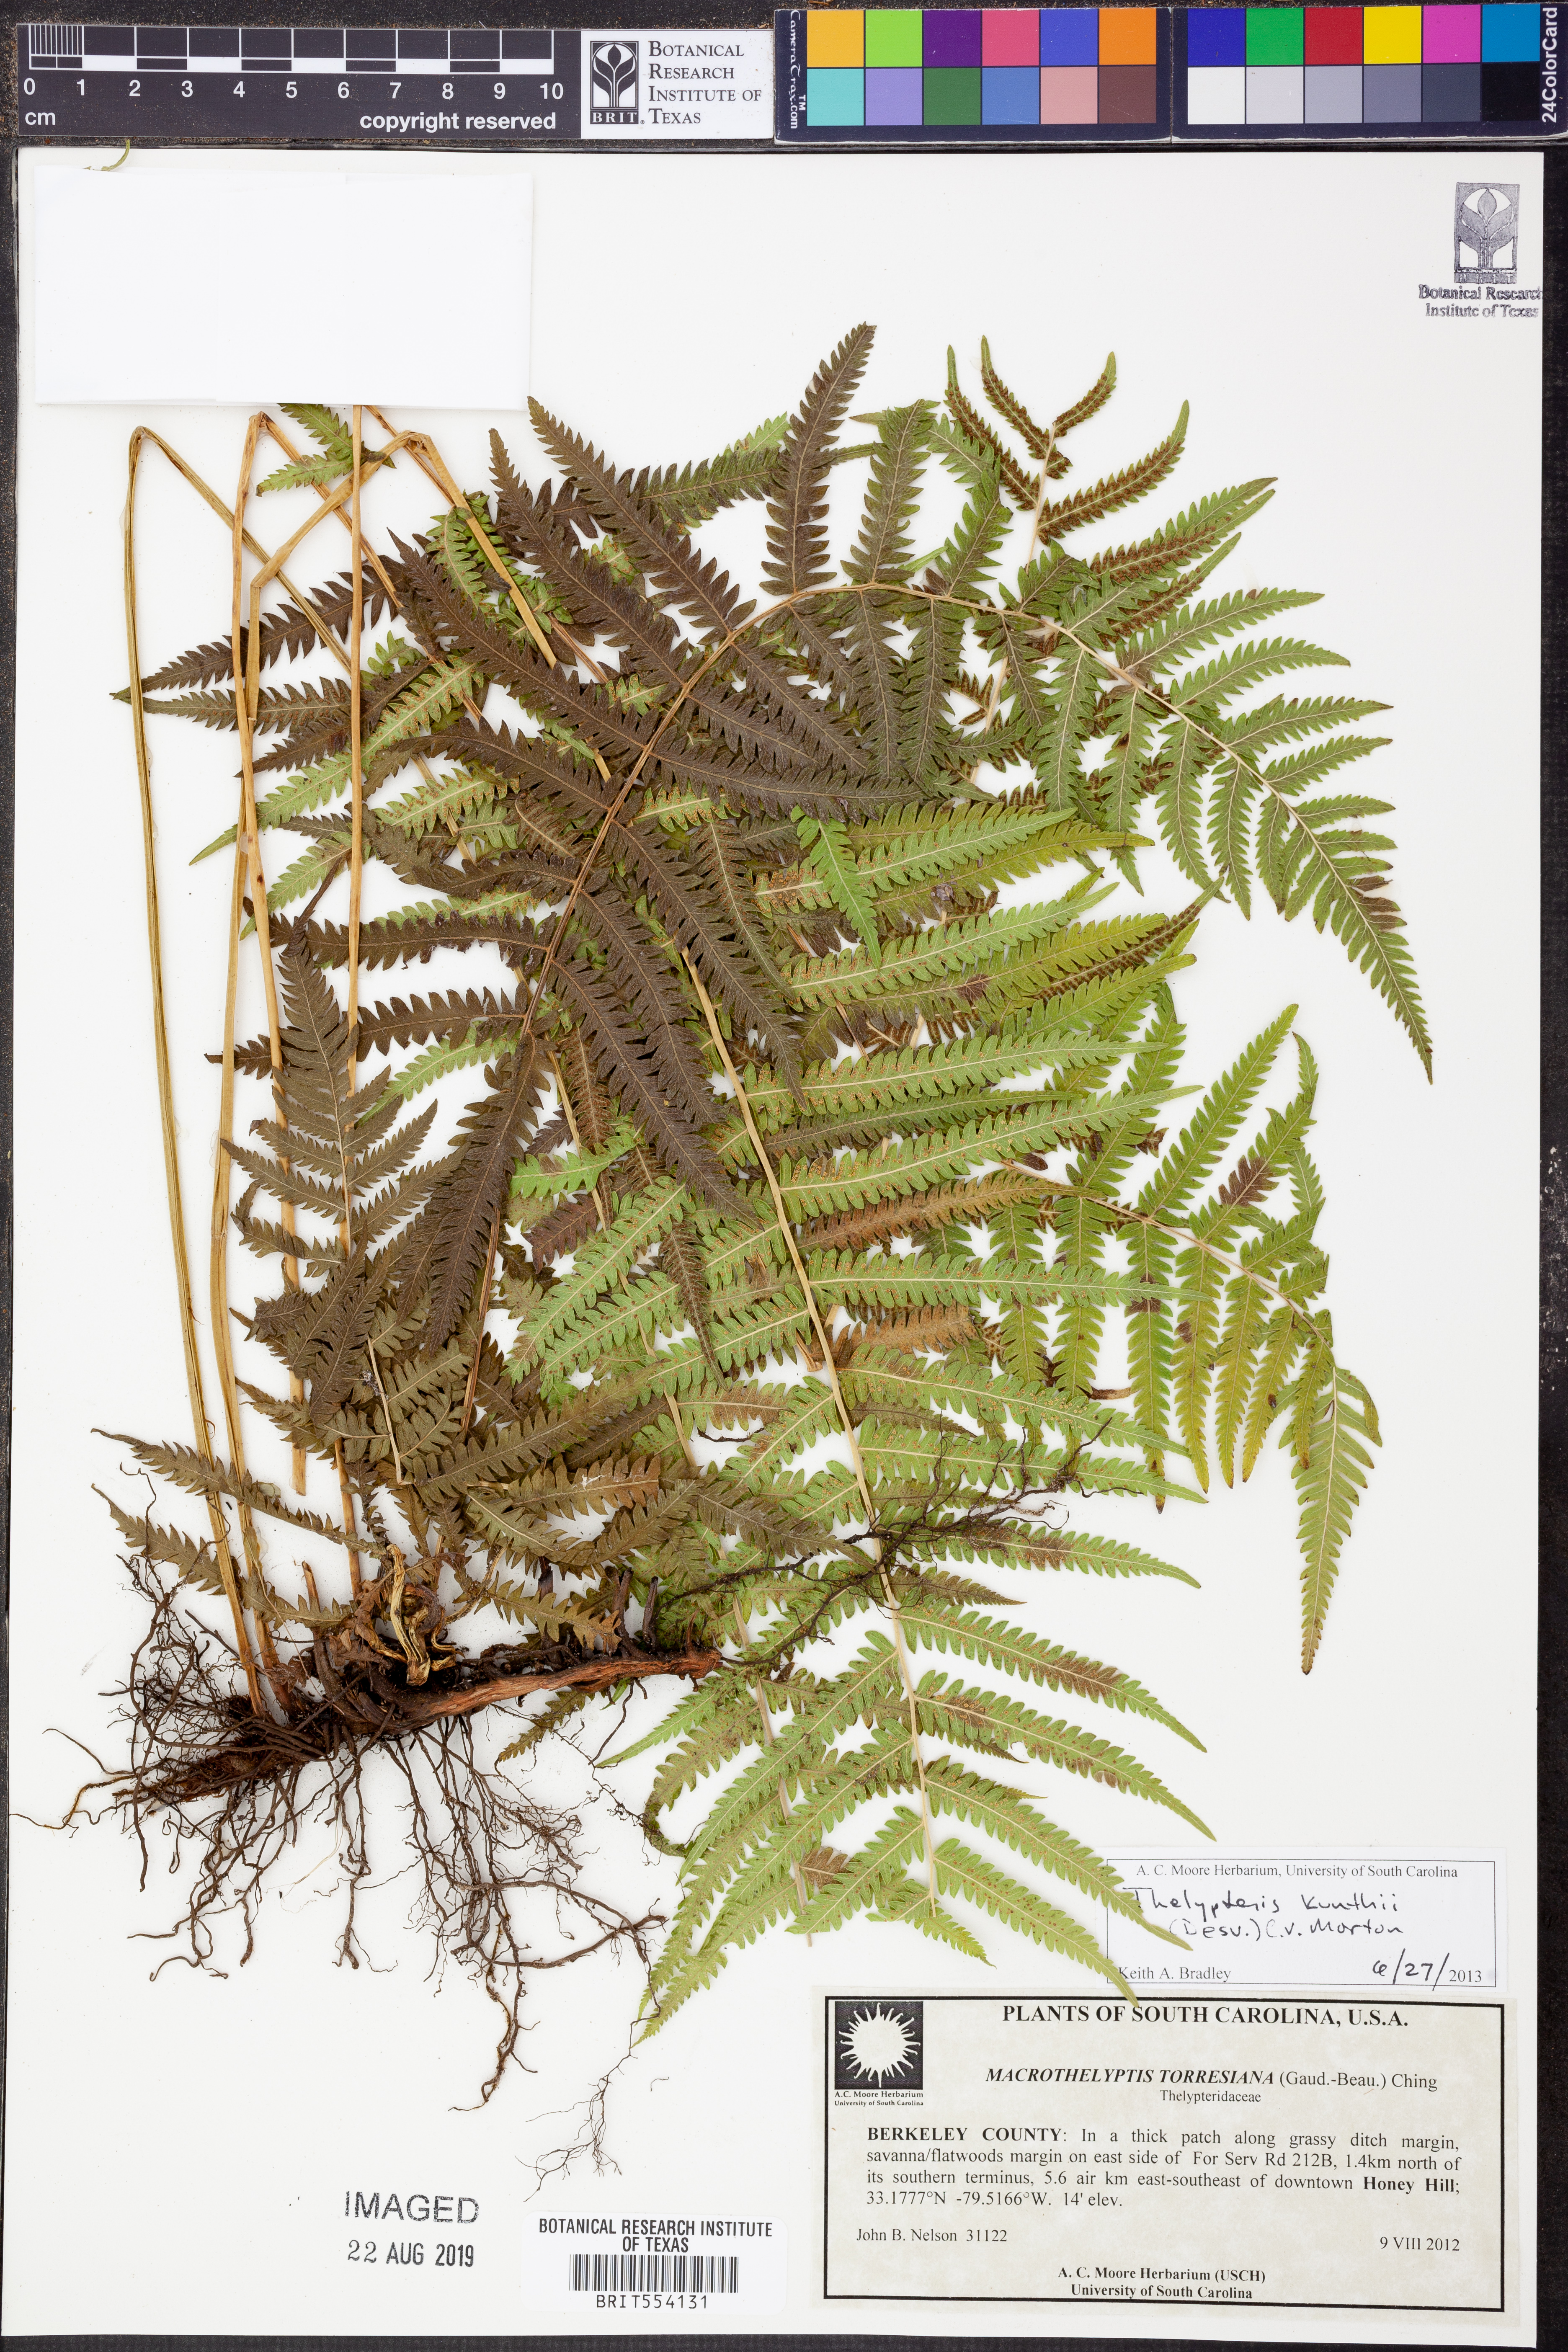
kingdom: Plantae
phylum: Tracheophyta
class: Polypodiopsida
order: Polypodiales
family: Thelypteridaceae
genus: Pelazoneuron
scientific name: Pelazoneuron kunthii
